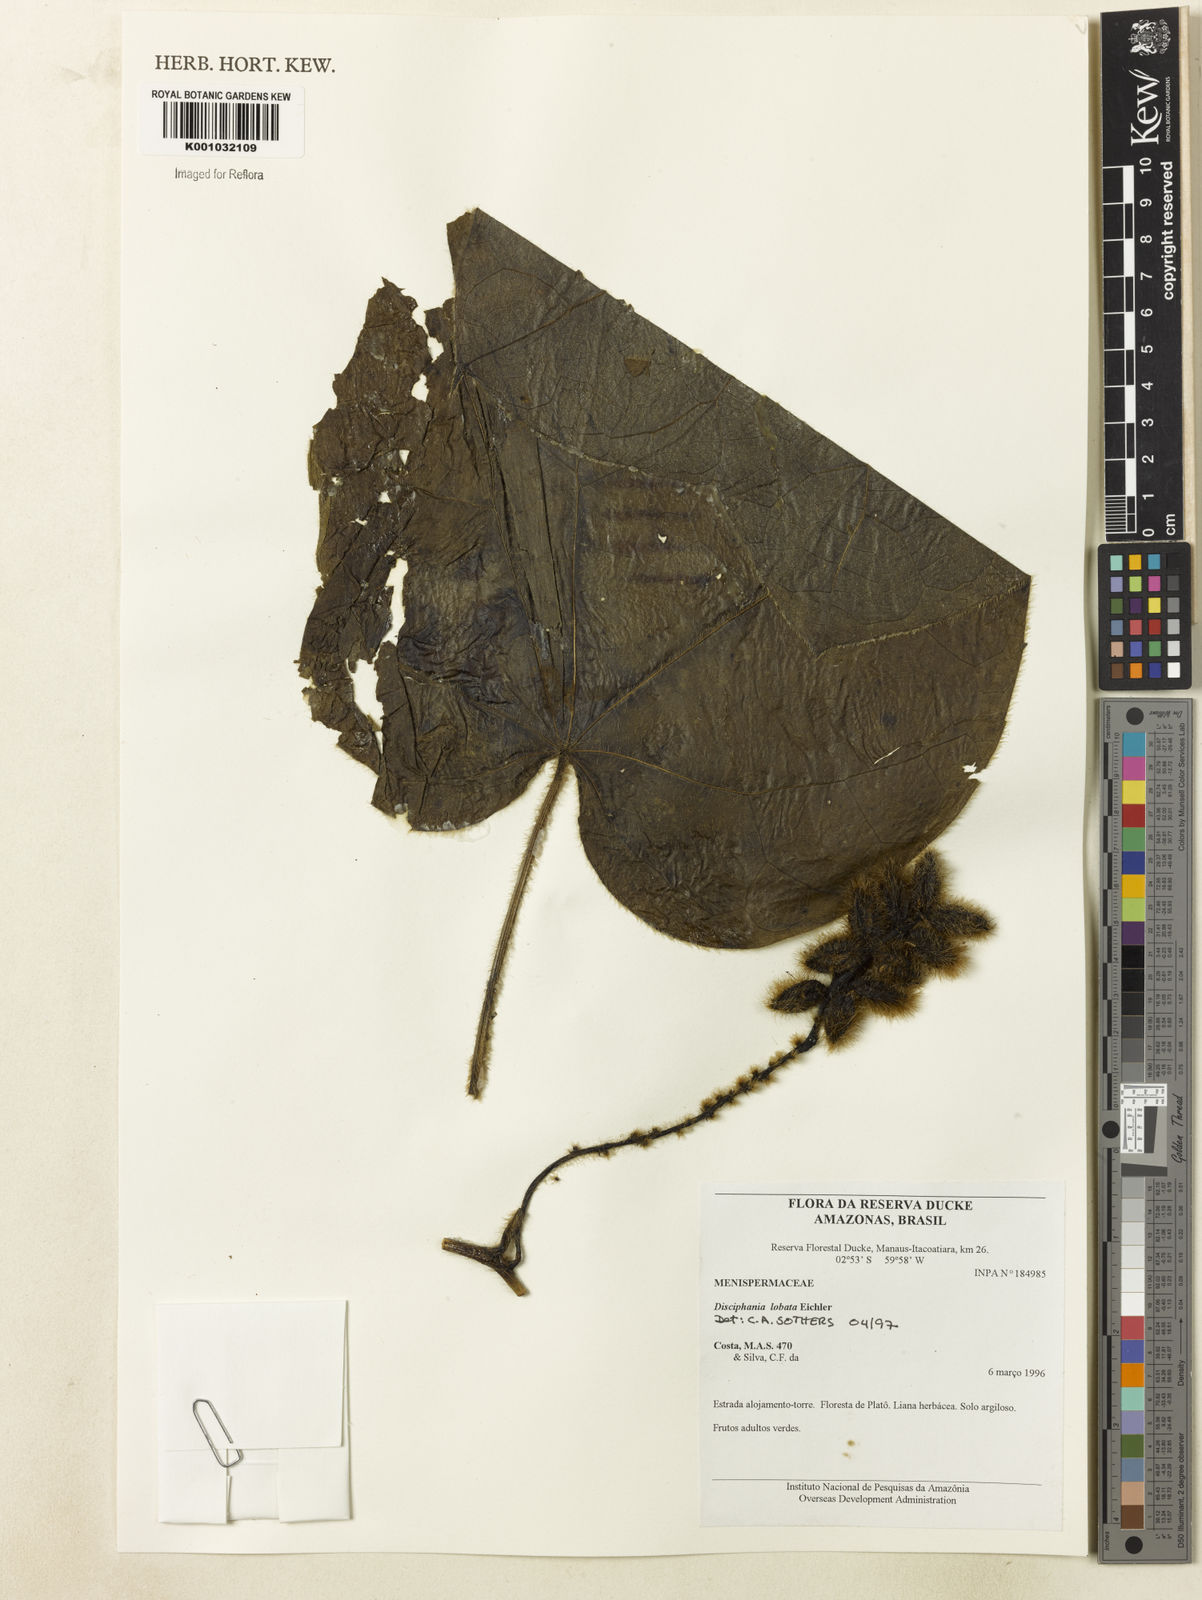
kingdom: Plantae
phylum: Tracheophyta
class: Magnoliopsida
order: Ranunculales
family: Menispermaceae
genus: Disciphania
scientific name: Disciphania lobata
